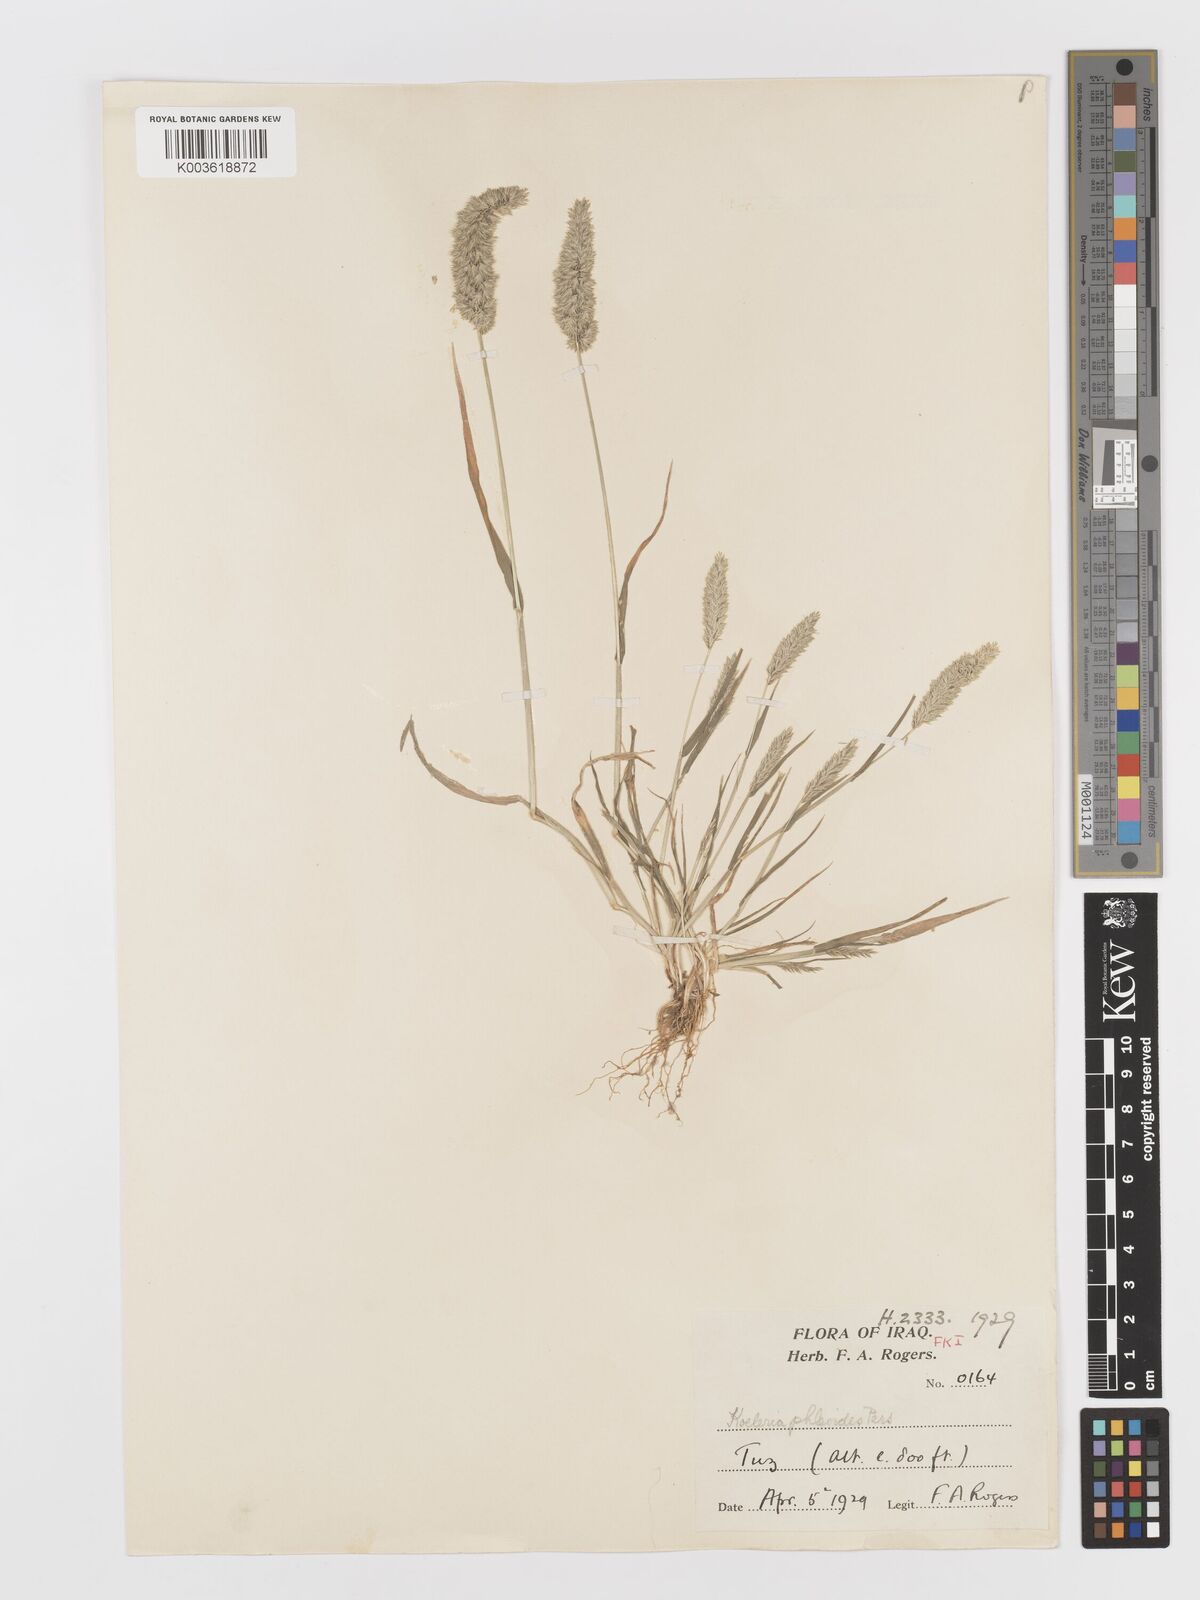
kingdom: Plantae
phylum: Tracheophyta
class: Liliopsida
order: Poales
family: Poaceae
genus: Rostraria
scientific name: Rostraria cristata
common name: Mediterranean hair-grass
